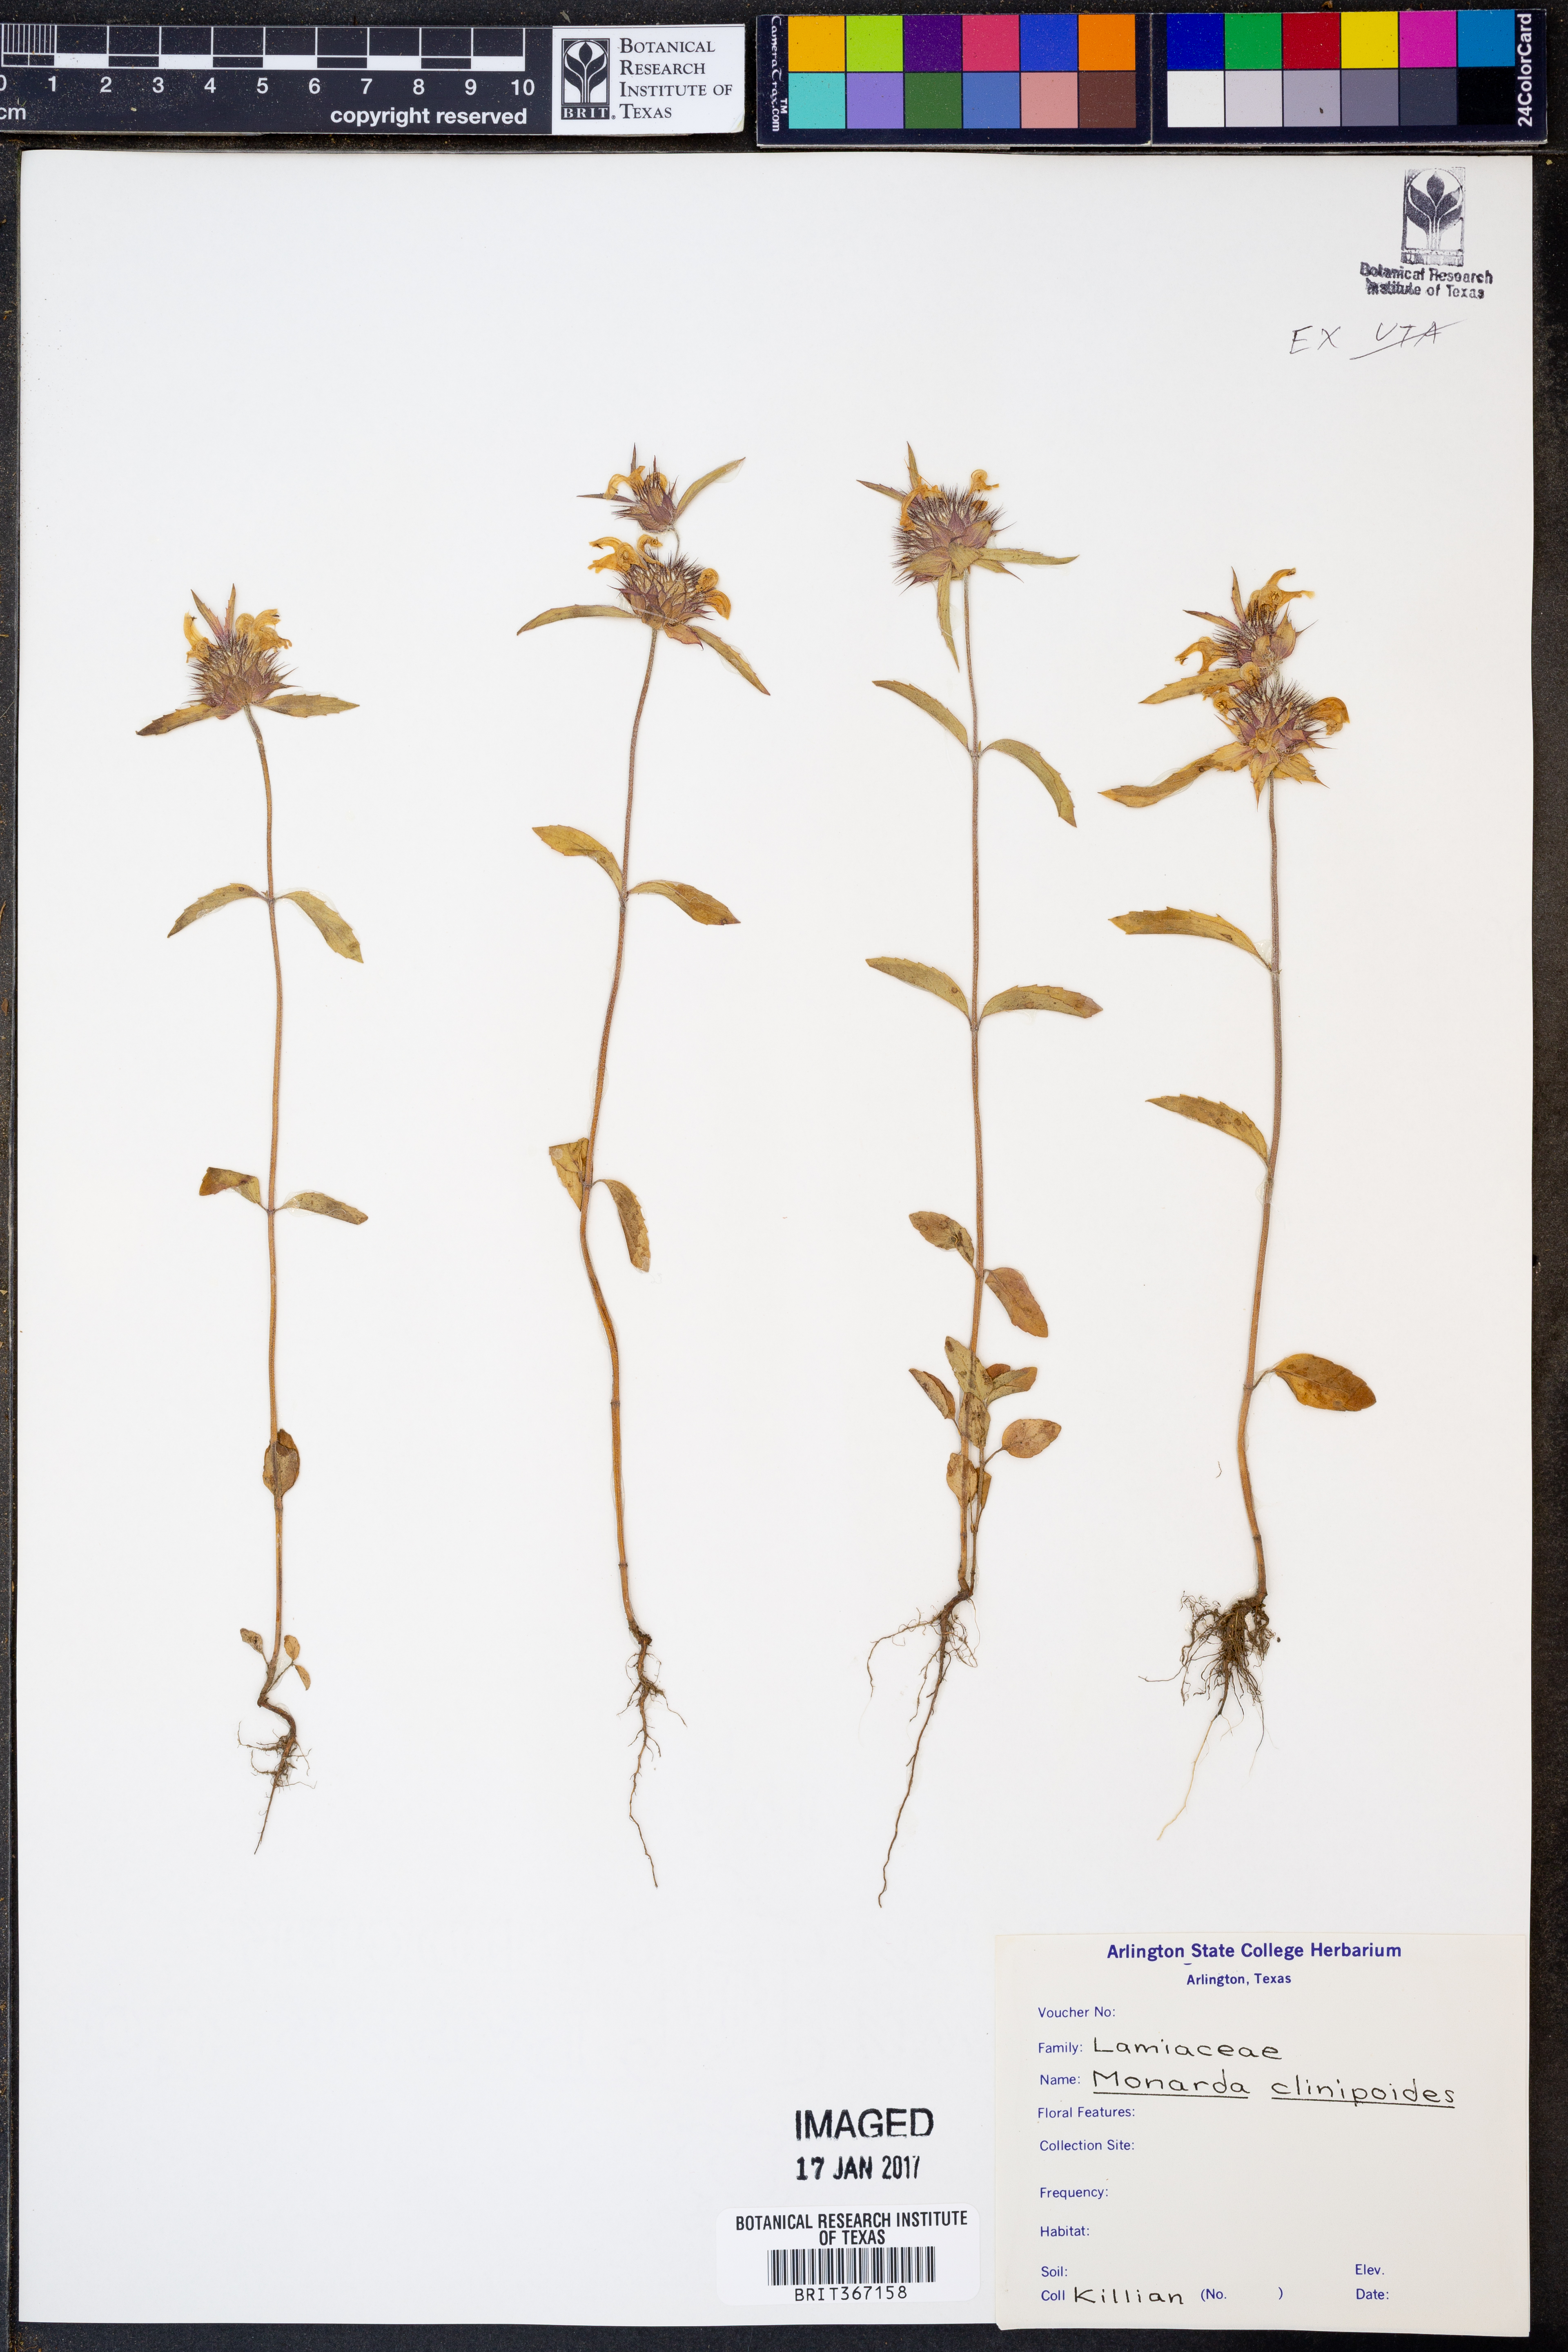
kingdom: Plantae
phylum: Tracheophyta
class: Magnoliopsida
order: Lamiales
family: Lamiaceae
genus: Monarda
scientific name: Monarda clinopodioides
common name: Basil beebalm
